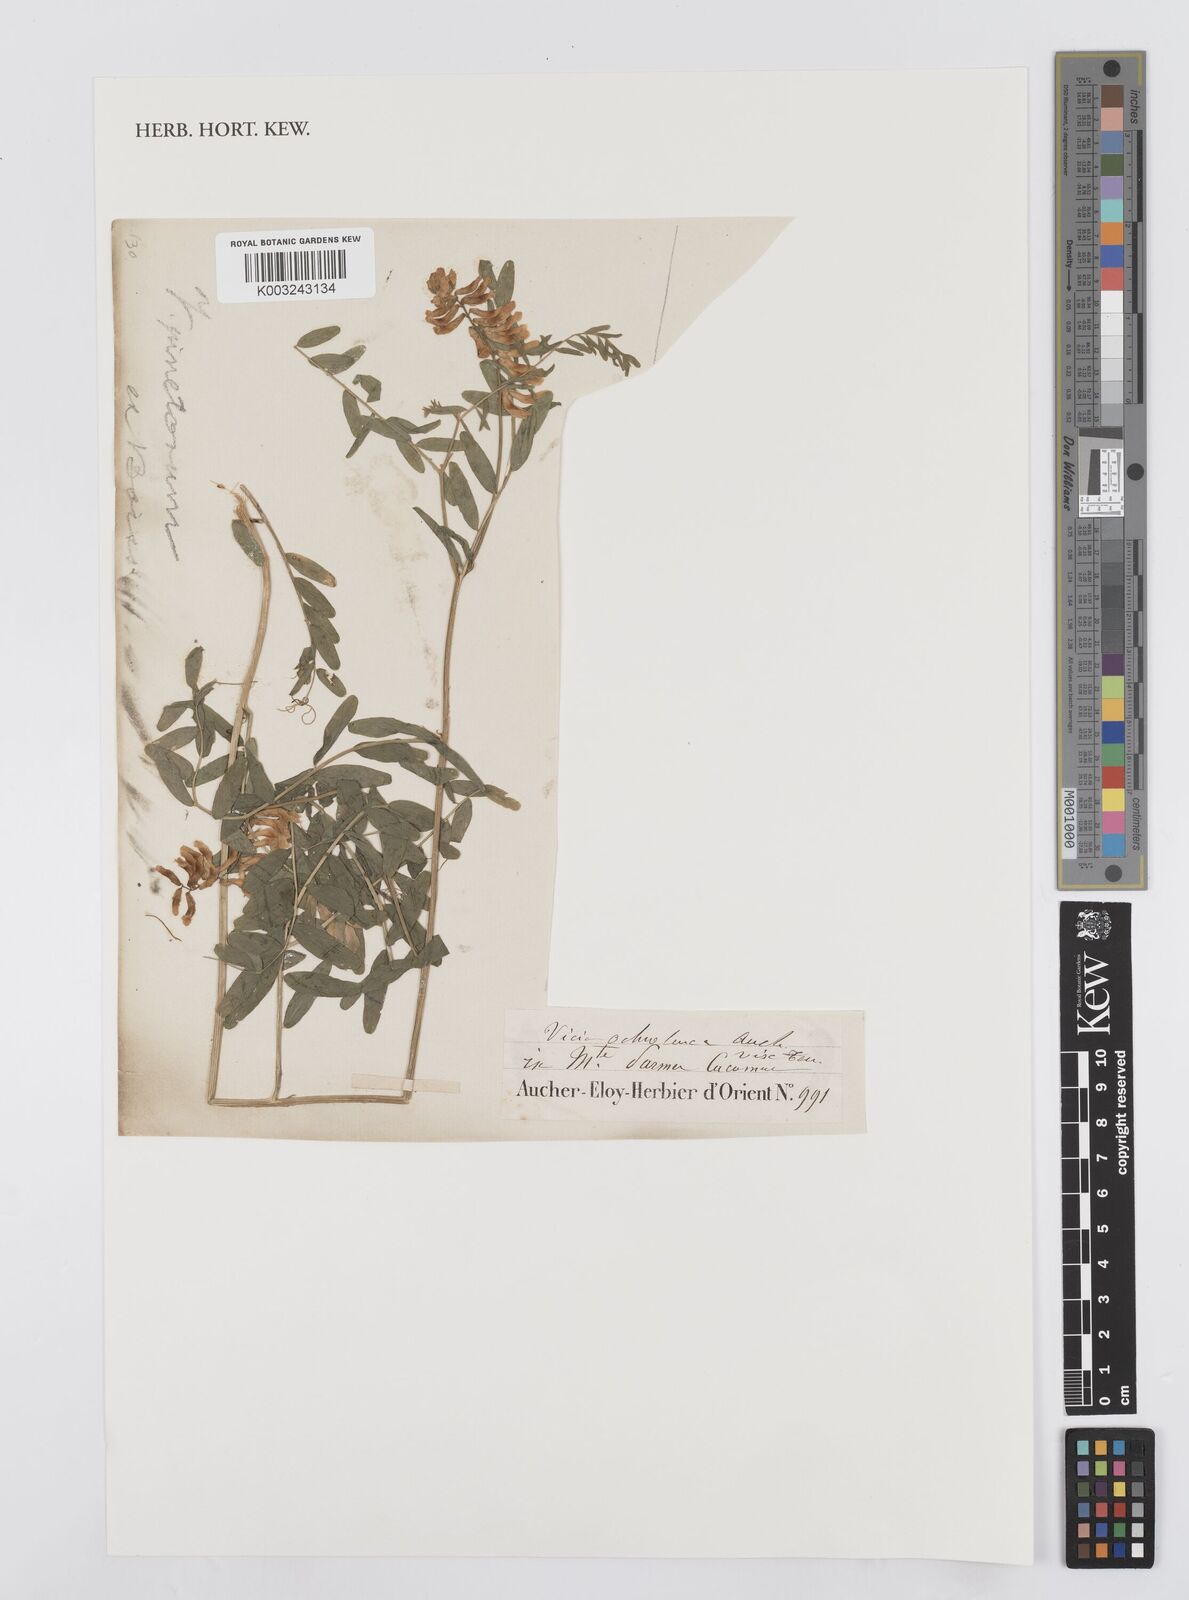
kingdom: Plantae
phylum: Tracheophyta
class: Magnoliopsida
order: Fabales
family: Fabaceae
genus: Vicia
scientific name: Vicia pinetorum
